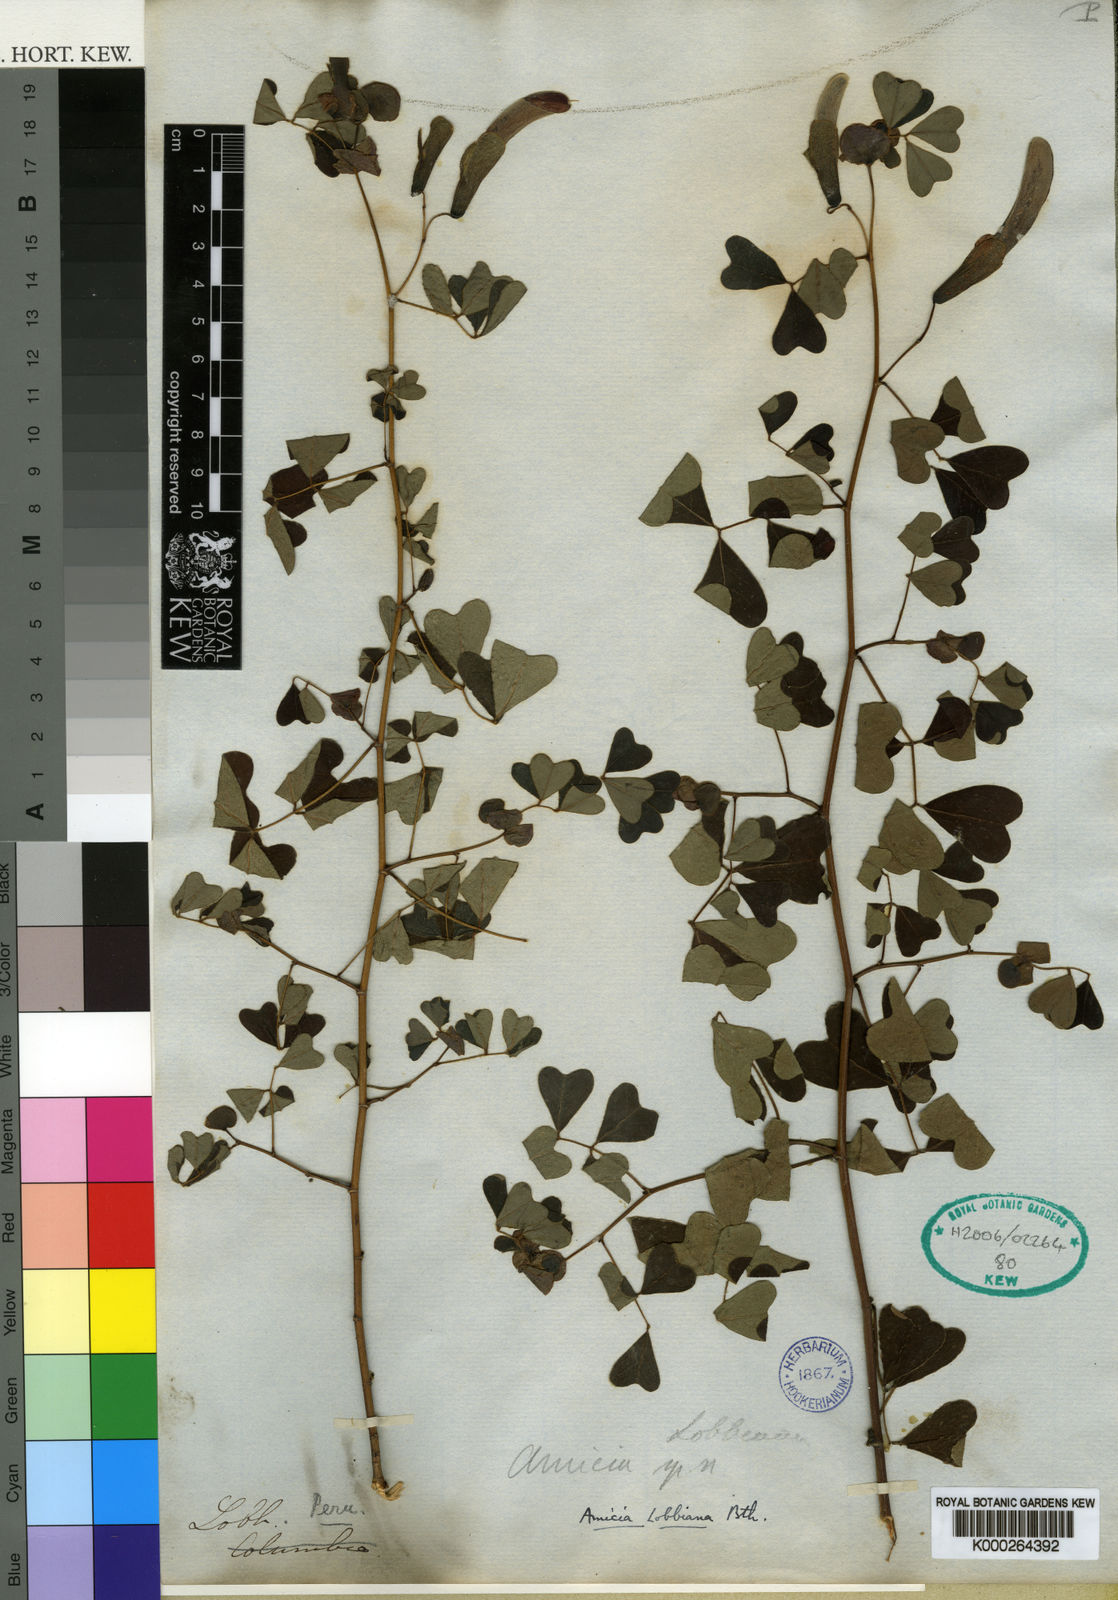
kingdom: Plantae
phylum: Tracheophyta
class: Magnoliopsida
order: Fabales
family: Fabaceae
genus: Amicia
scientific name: Amicia lobbiana
